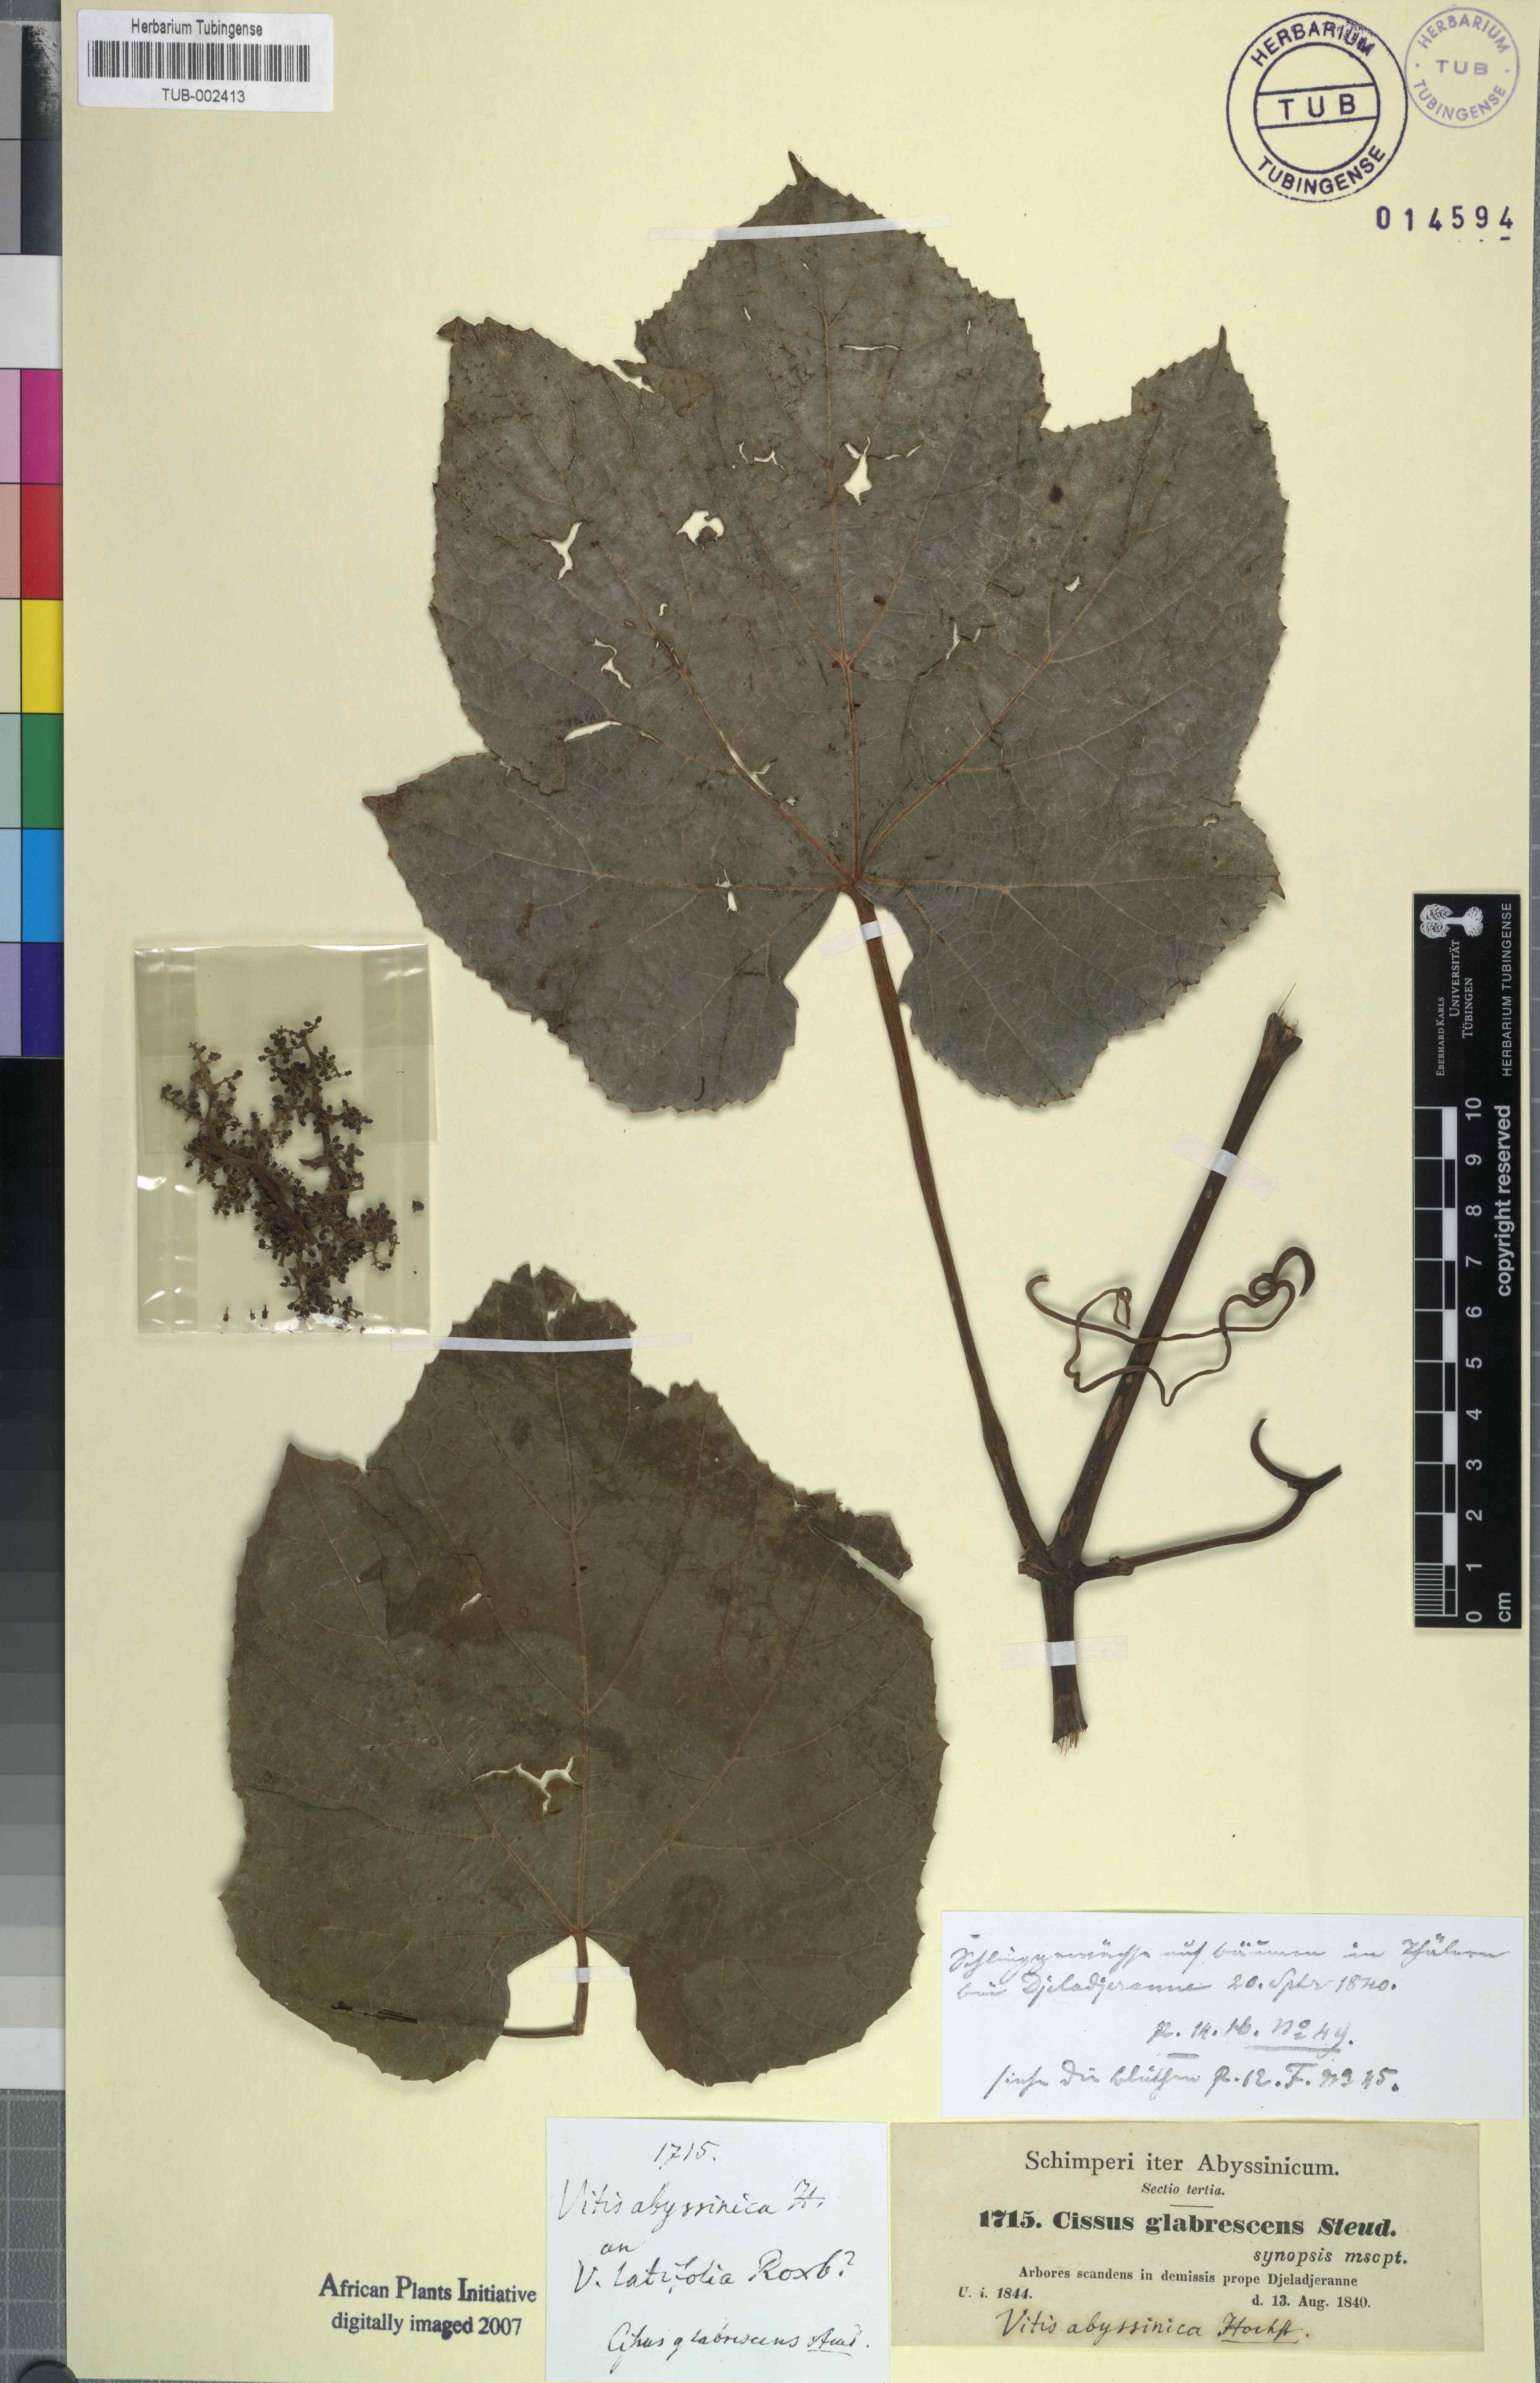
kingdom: Plantae
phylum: Tracheophyta
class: Magnoliopsida
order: Vitales
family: Vitaceae
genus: Ampelocissus
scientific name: Ampelocissus abyssinica
